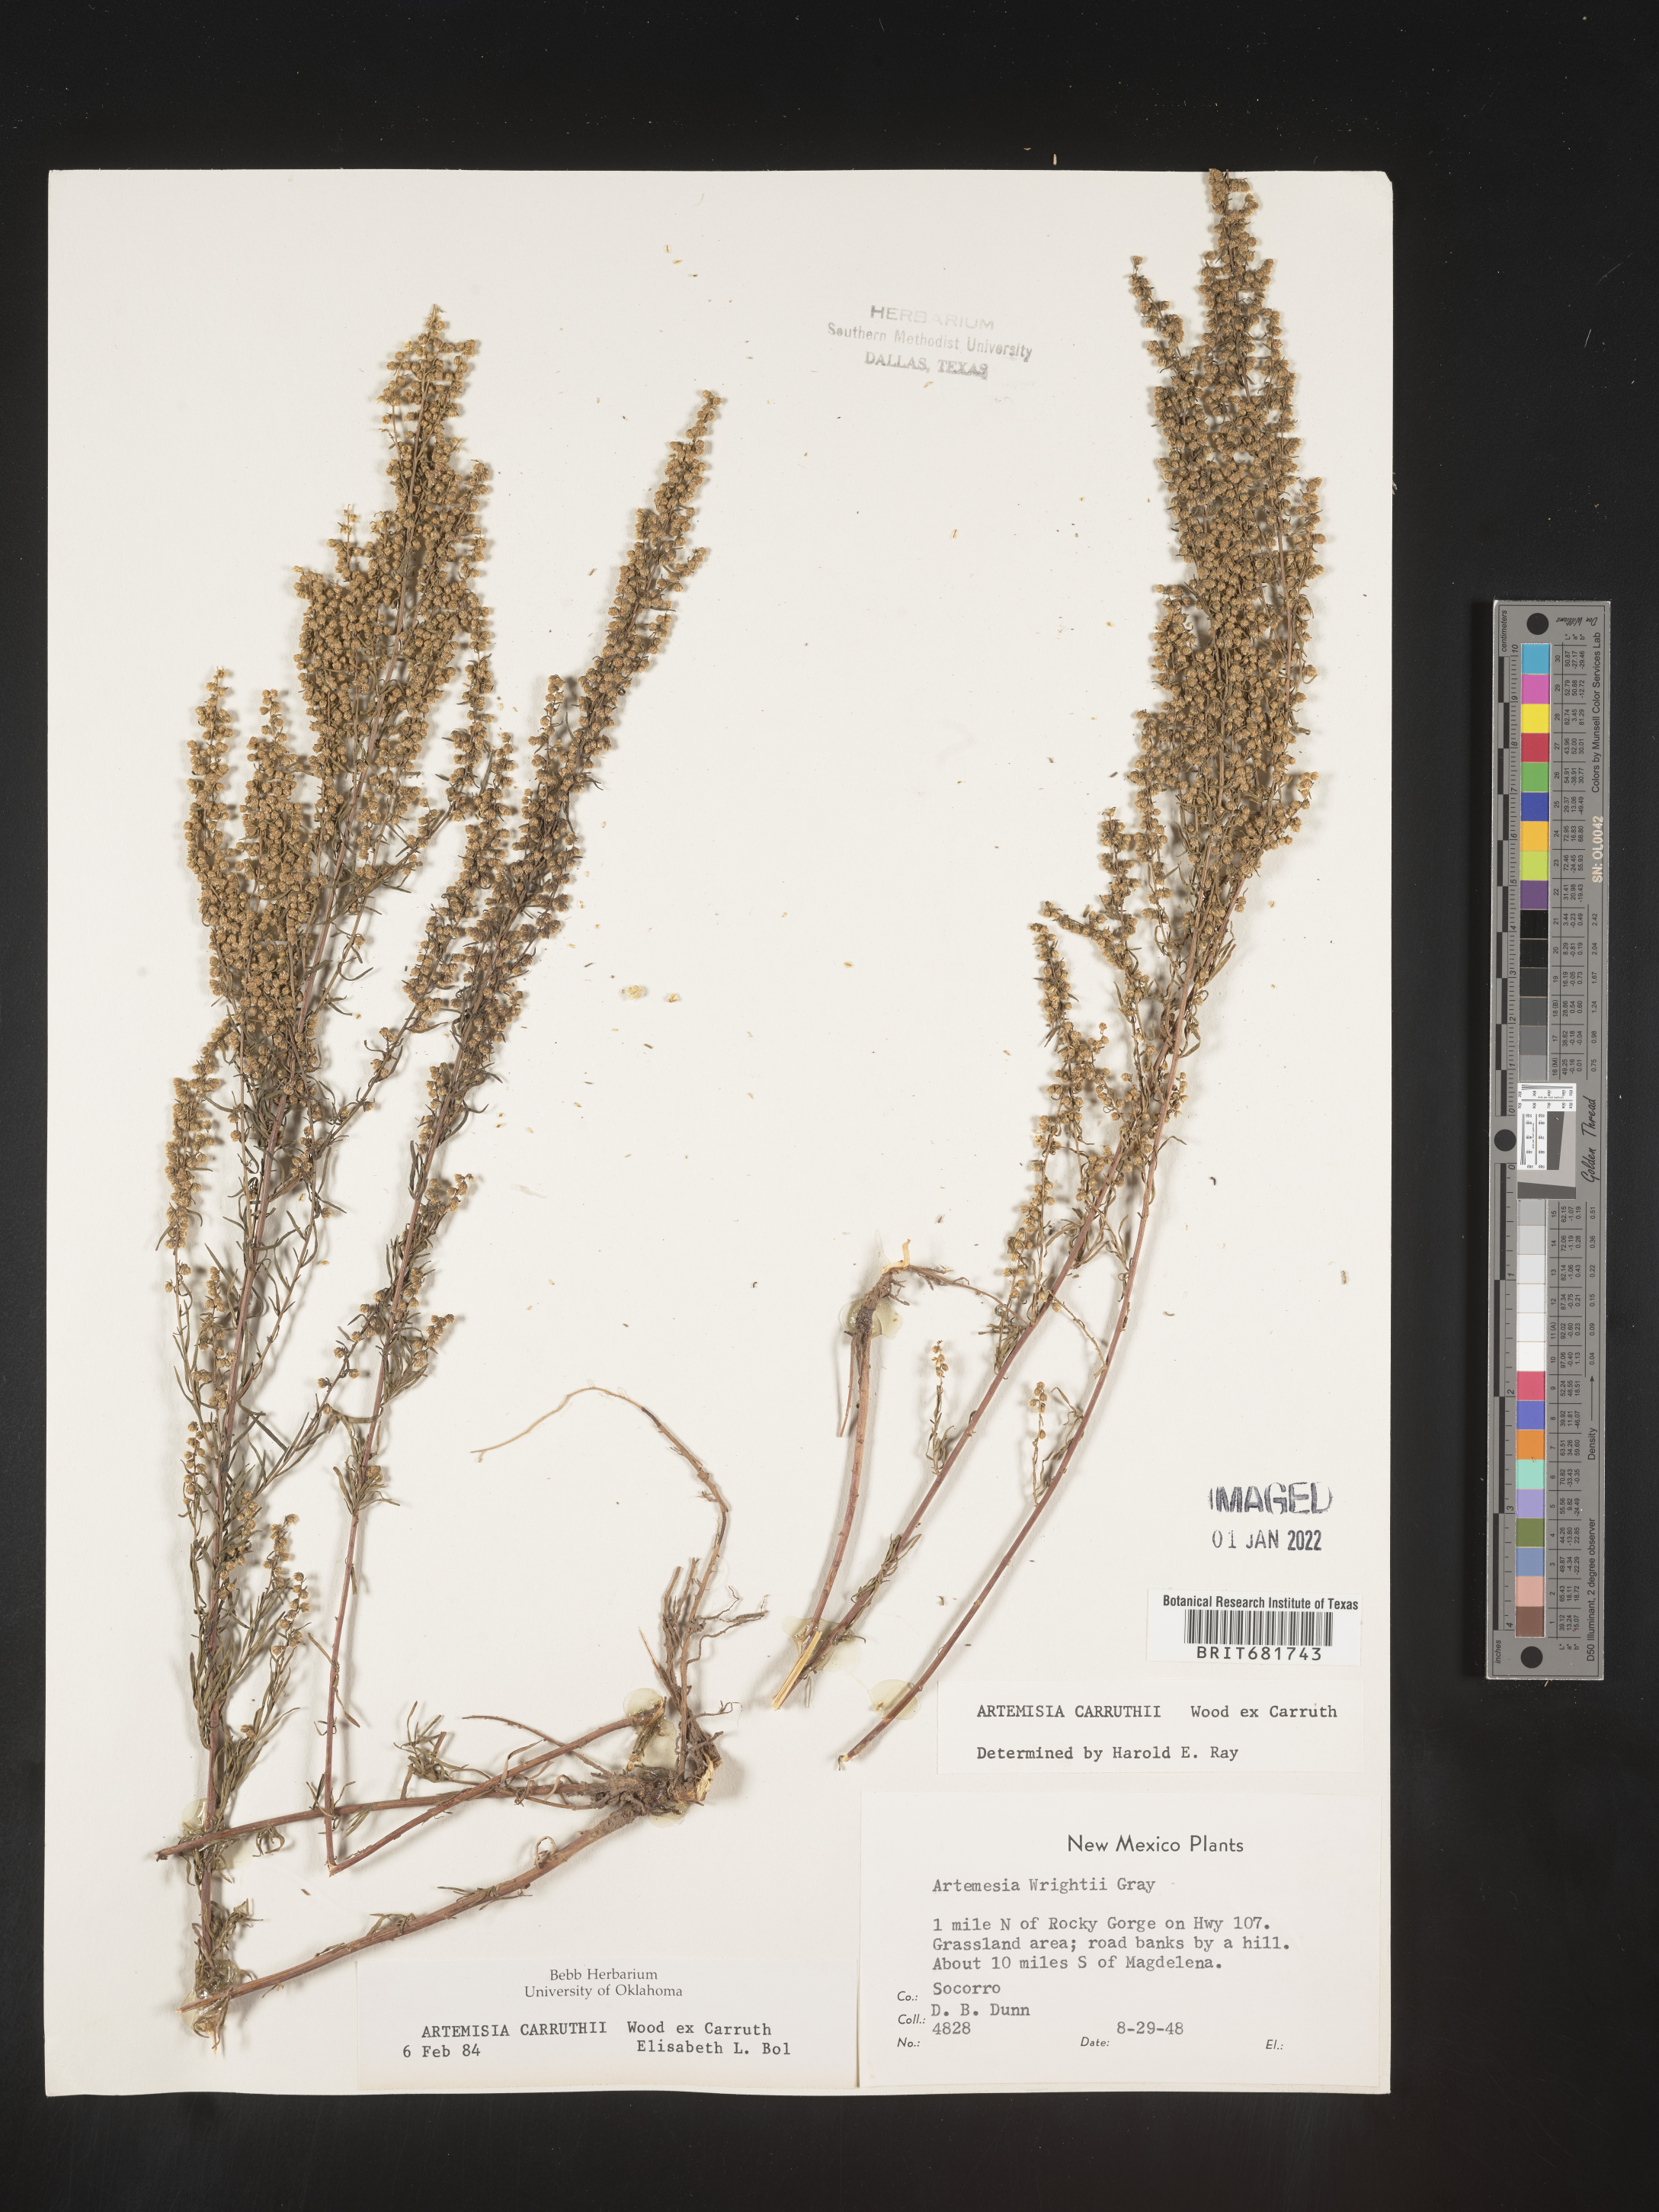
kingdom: Plantae
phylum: Tracheophyta
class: Magnoliopsida
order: Asterales
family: Asteraceae
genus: Artemisia
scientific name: Artemisia carruthii
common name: Carruth wormwood
